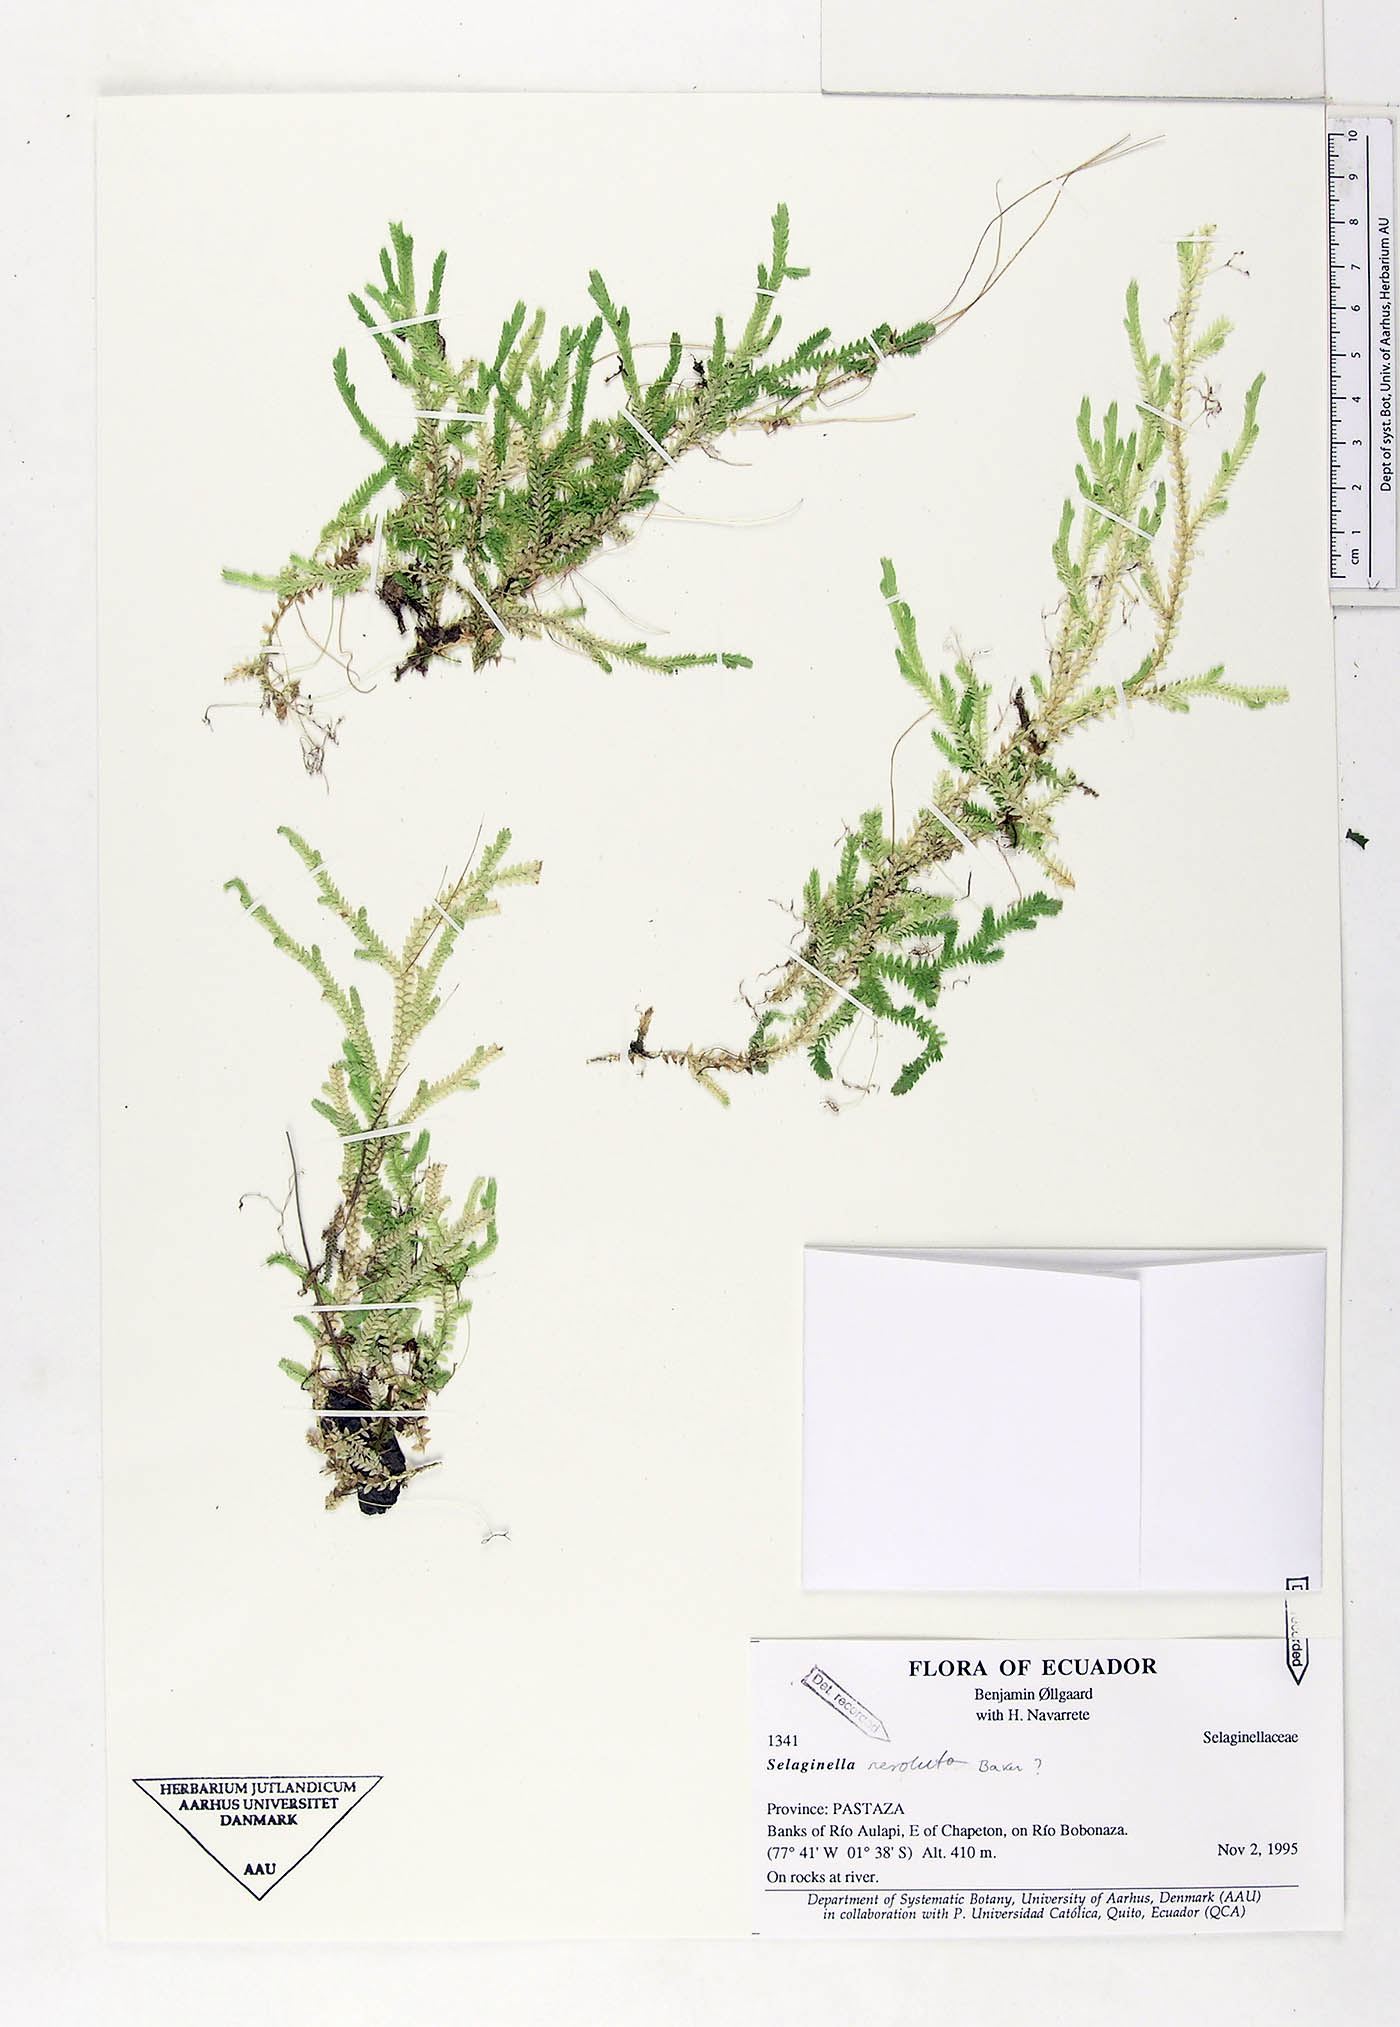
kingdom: Plantae
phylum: Tracheophyta
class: Lycopodiopsida
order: Selaginellales
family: Selaginellaceae
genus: Selaginella
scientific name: Selaginella revoluta
